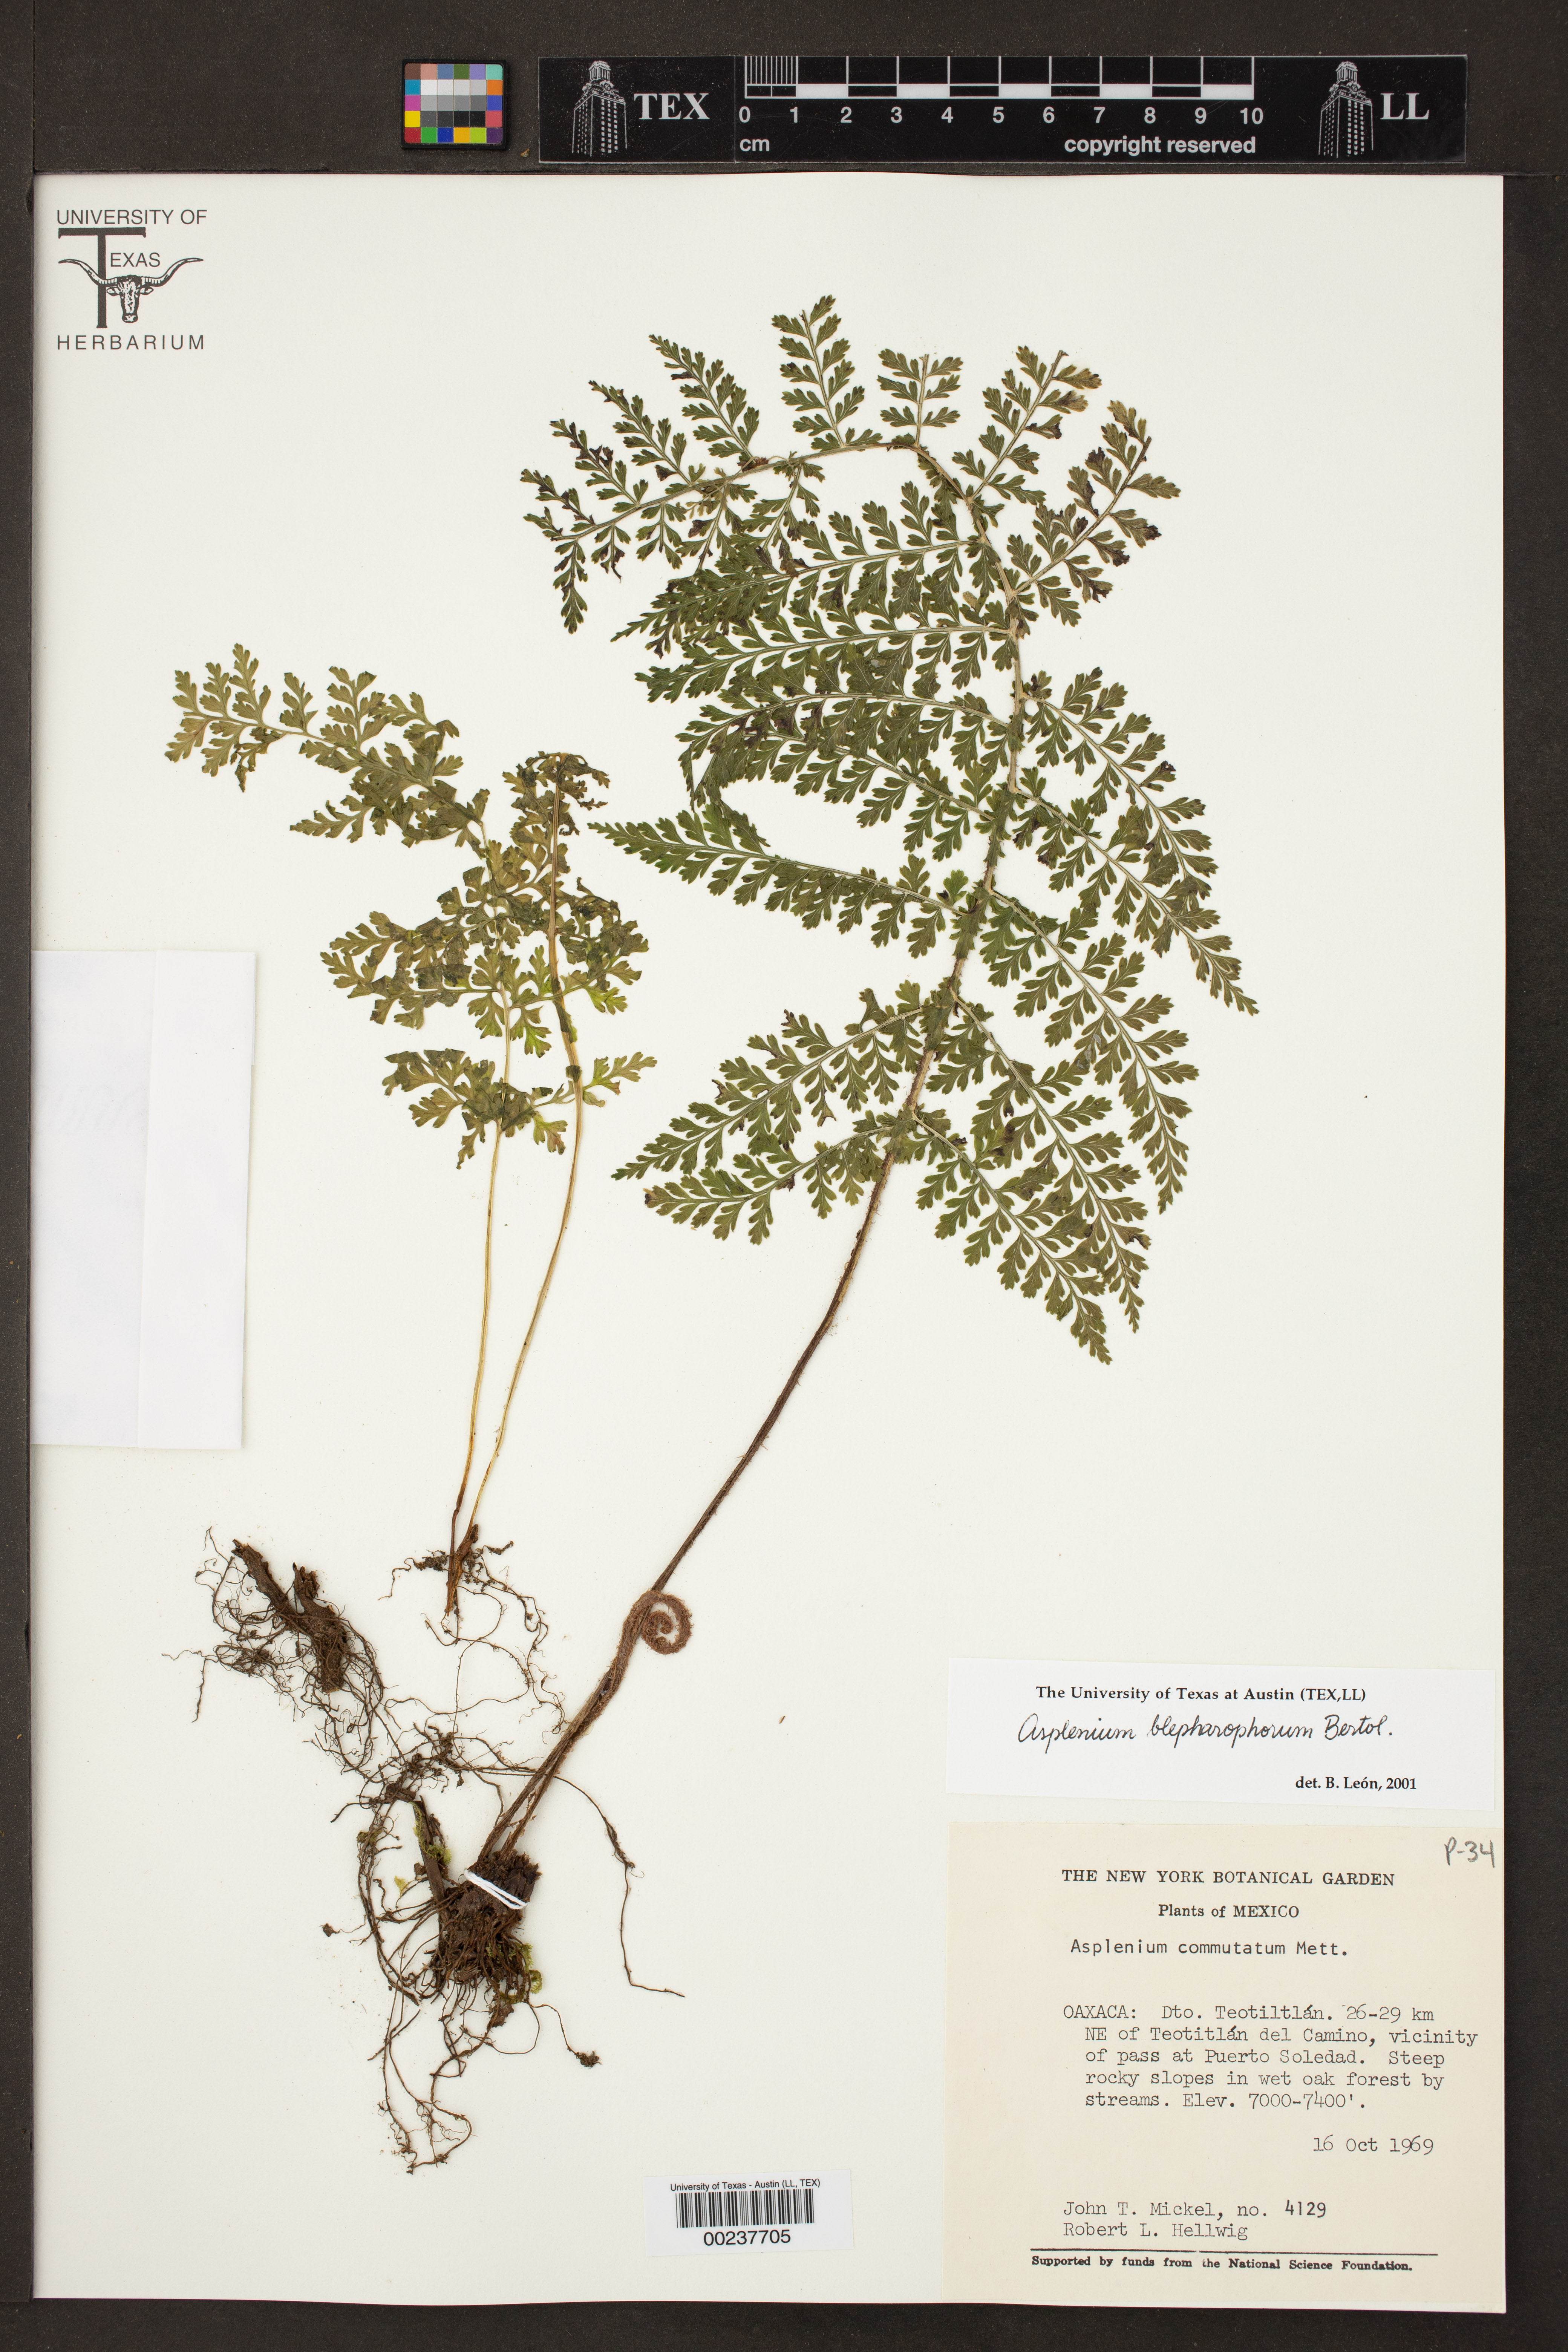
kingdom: Plantae
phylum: Tracheophyta
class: Polypodiopsida
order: Polypodiales
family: Aspleniaceae
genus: Asplenium
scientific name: Asplenium blepharophorum
